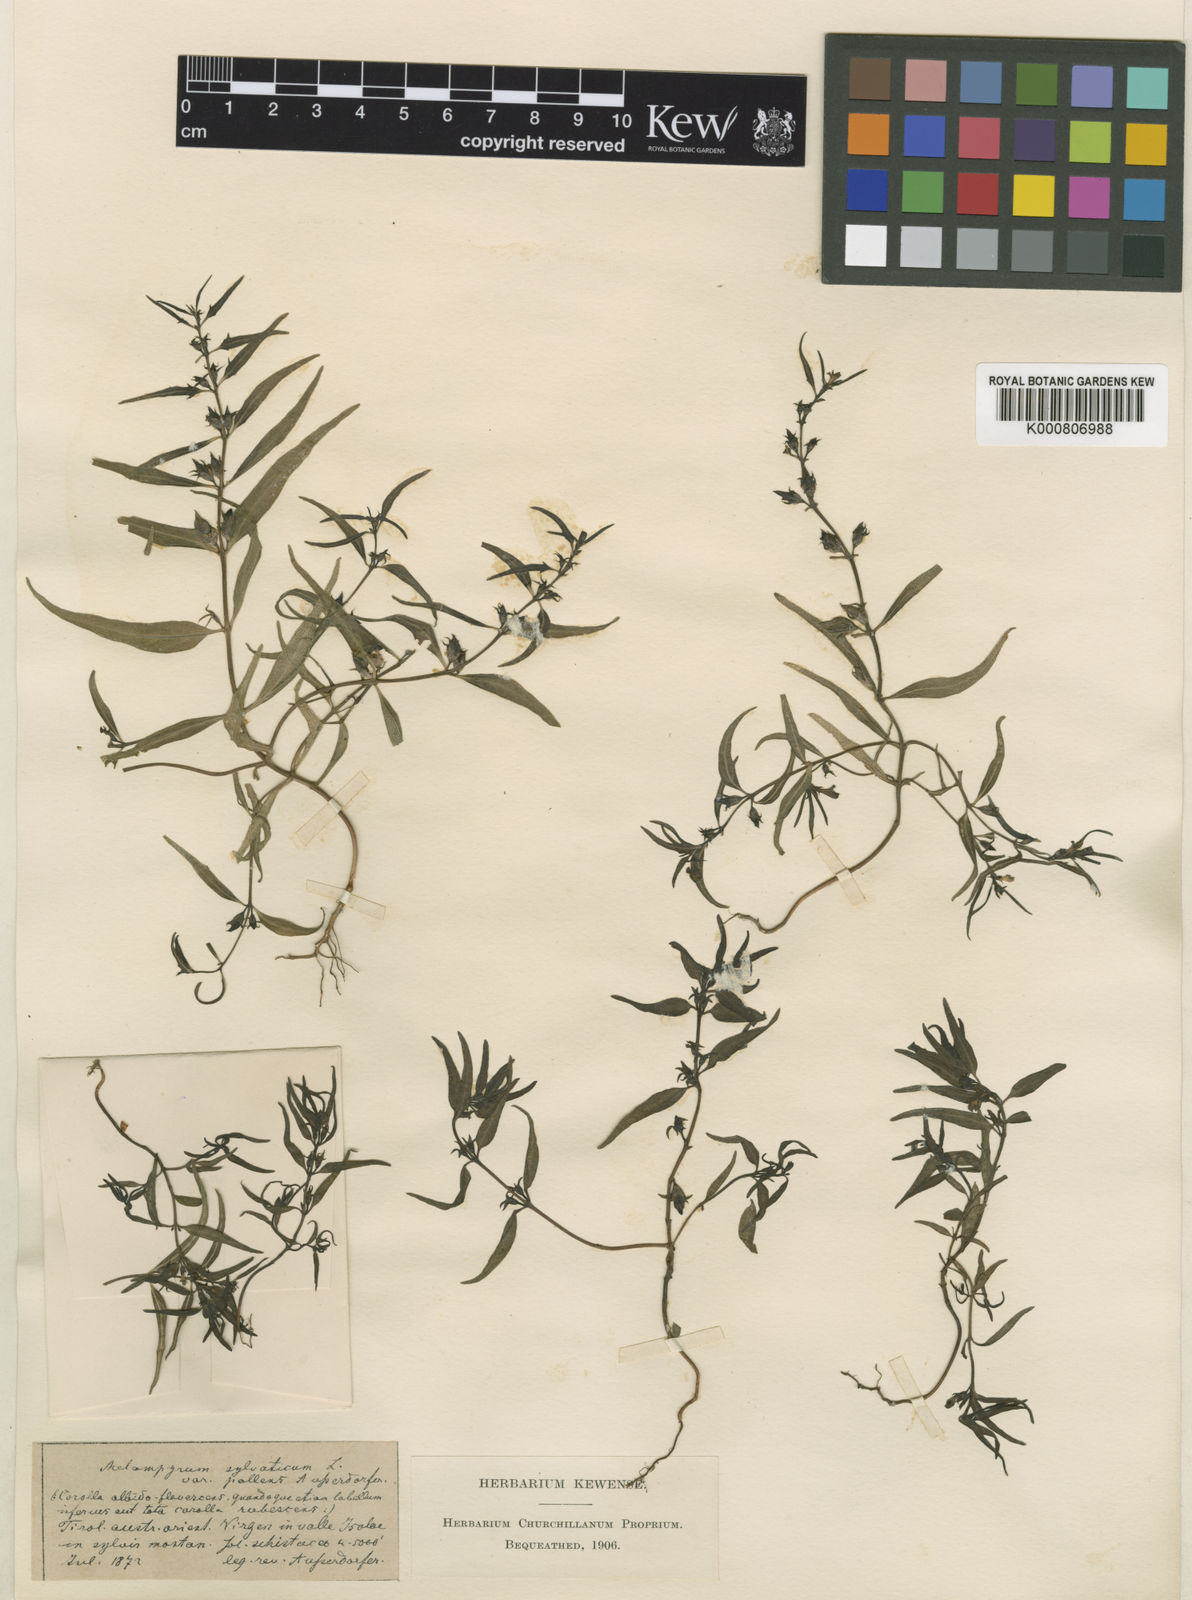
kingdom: Plantae
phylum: Tracheophyta
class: Magnoliopsida
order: Lamiales
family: Orobanchaceae
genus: Melampyrum
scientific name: Melampyrum saxosum
